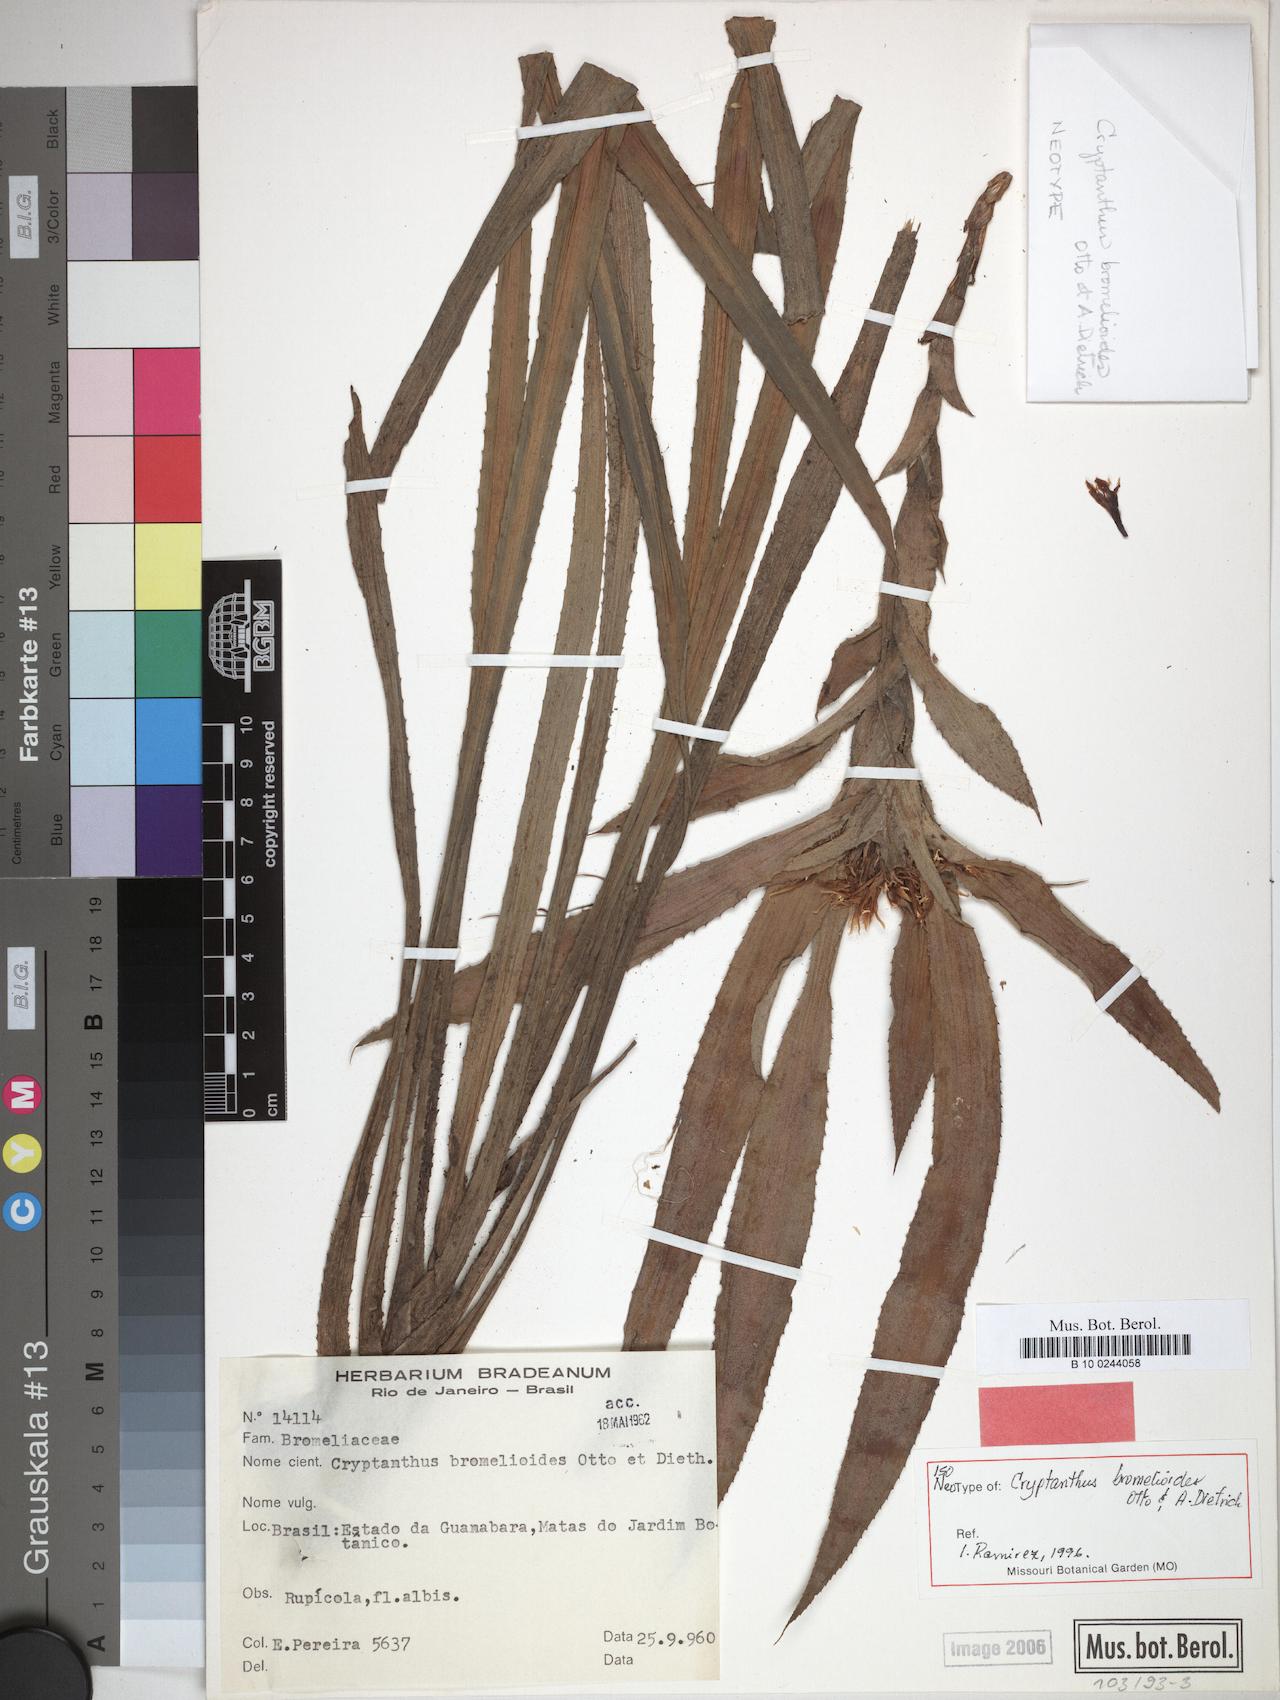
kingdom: Plantae
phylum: Tracheophyta
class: Liliopsida
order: Poales
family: Bromeliaceae
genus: Cryptanthus
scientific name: Cryptanthus bromelioides
